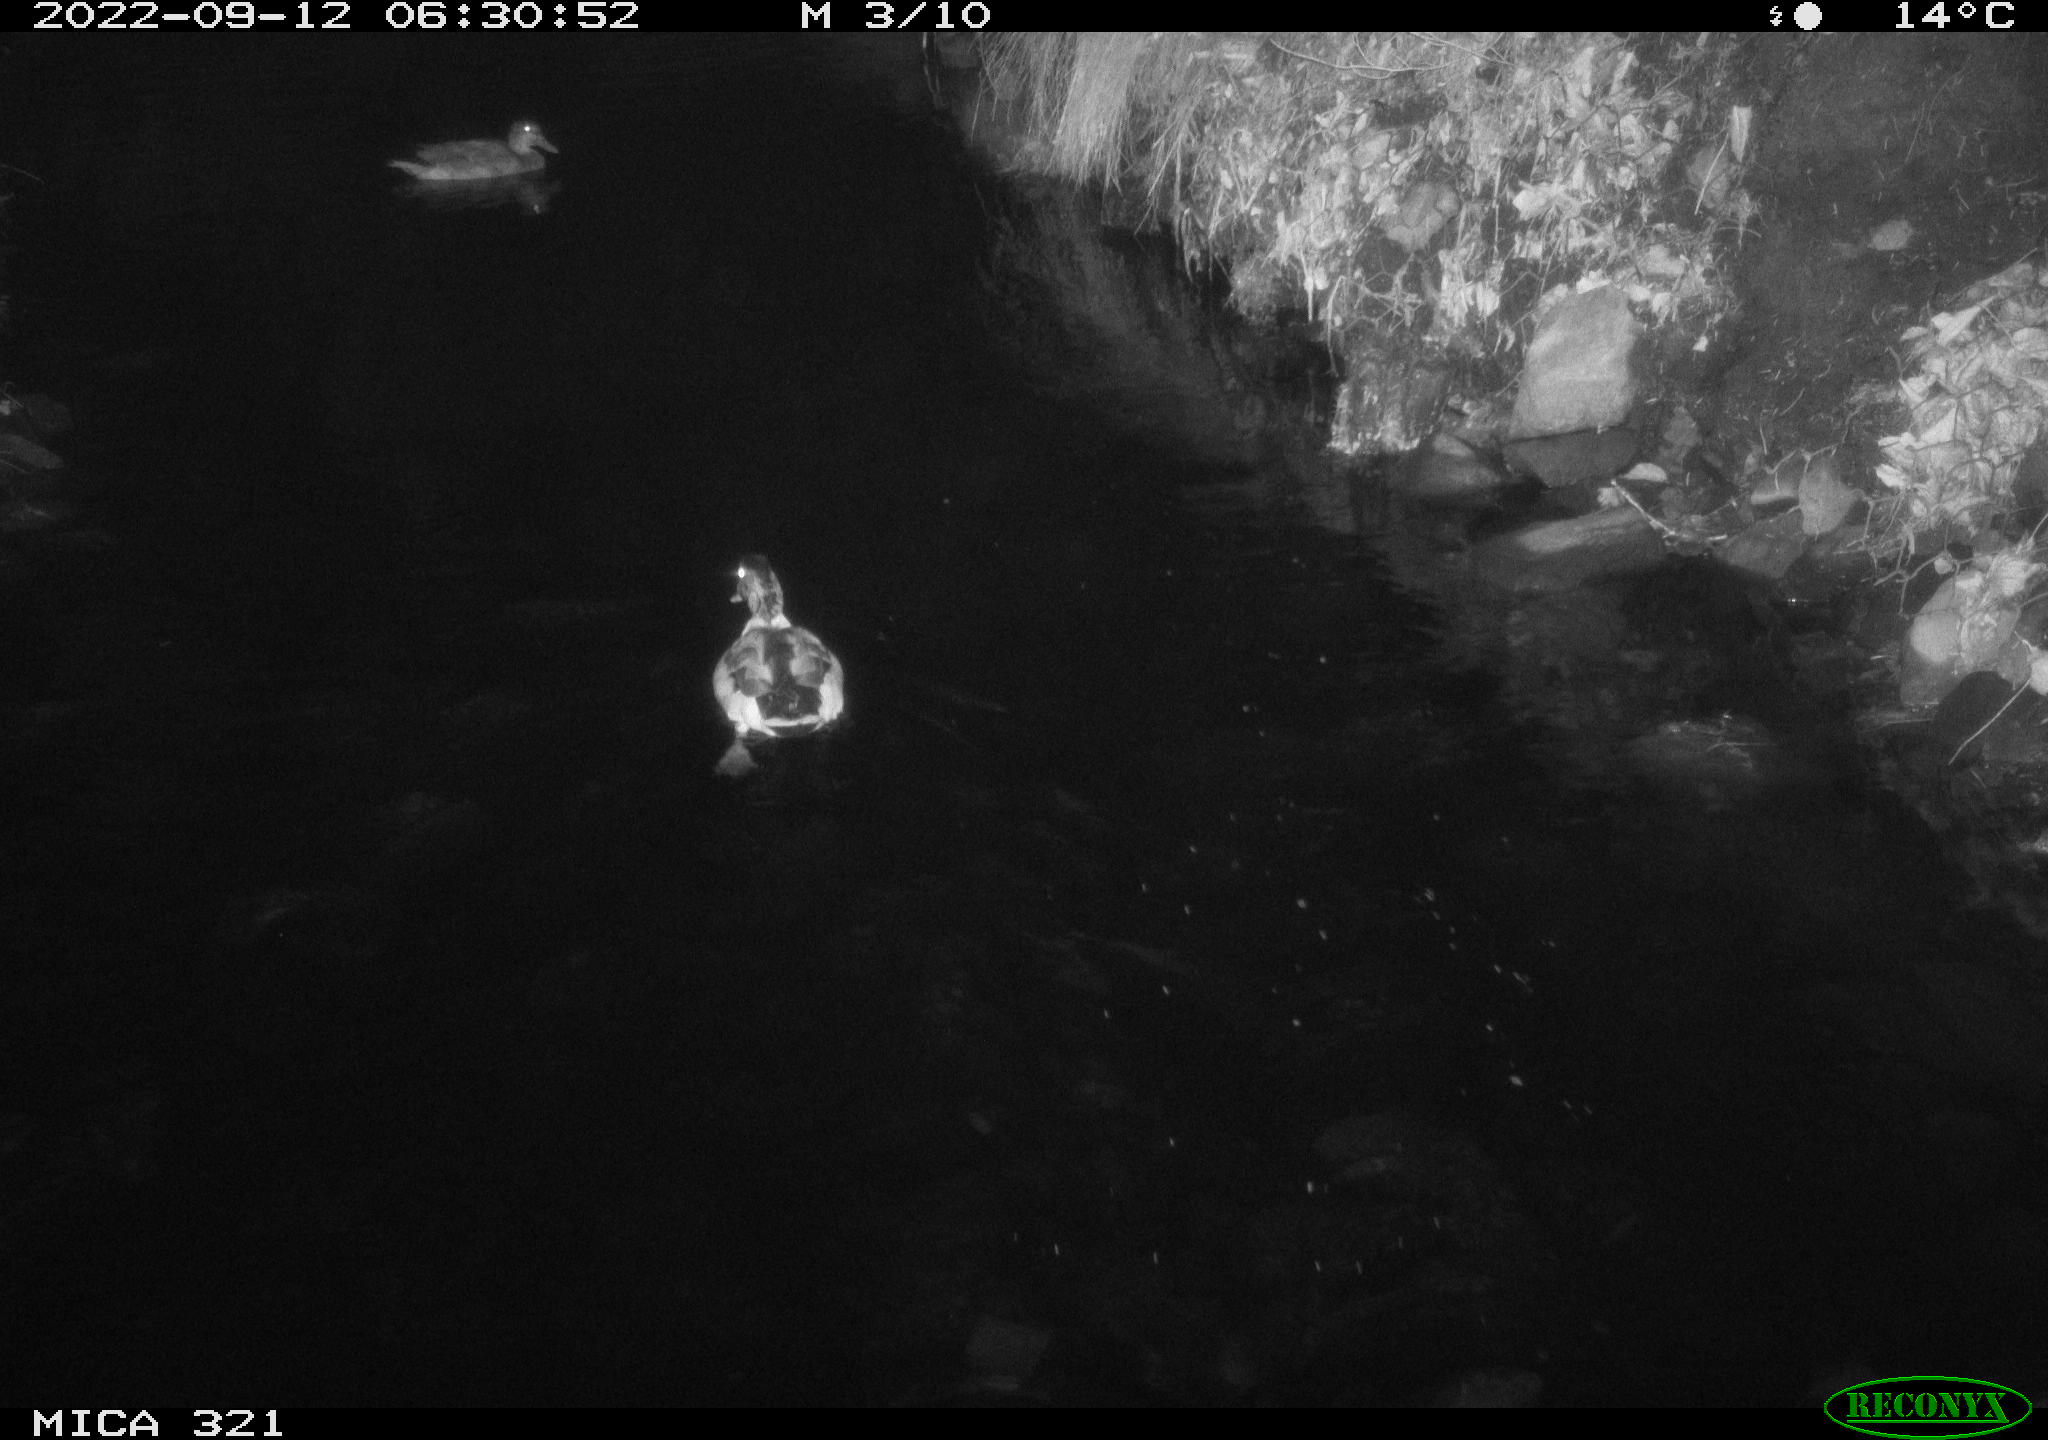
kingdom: Animalia
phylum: Chordata
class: Aves
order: Anseriformes
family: Anatidae
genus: Anas
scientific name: Anas
